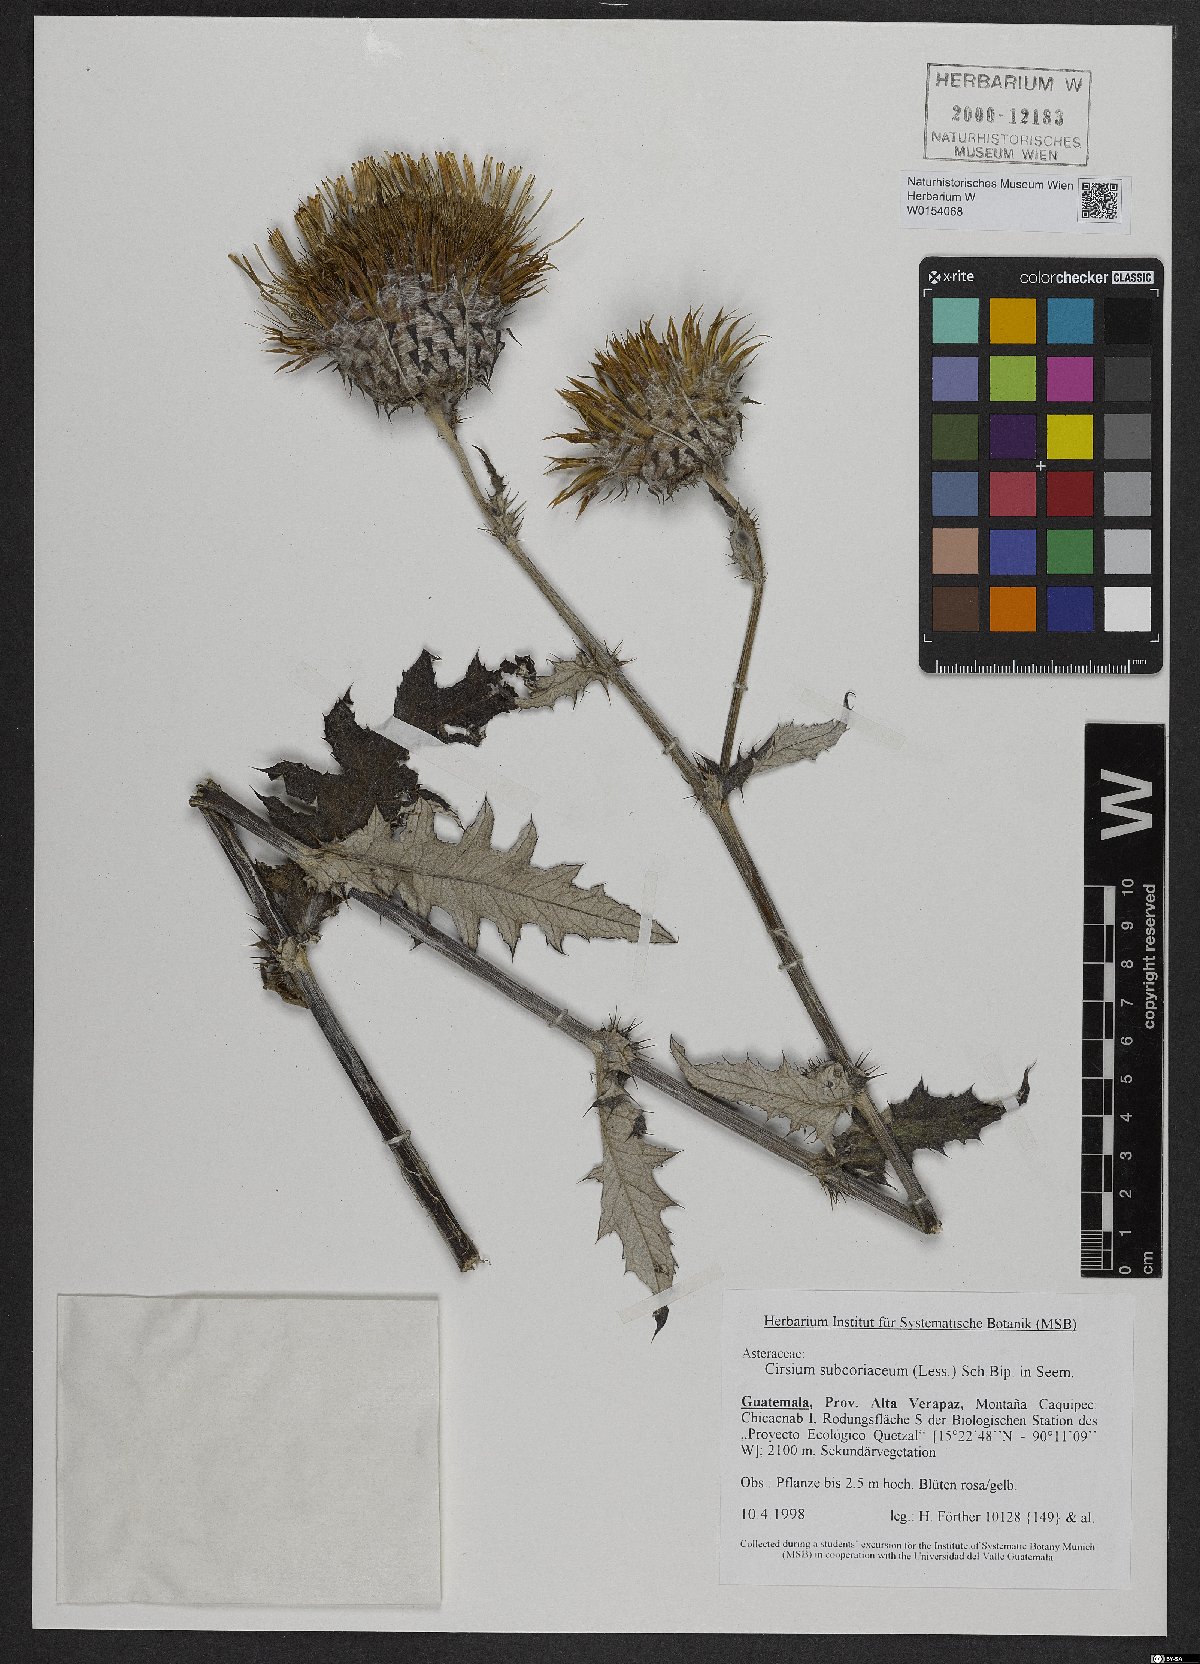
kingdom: Plantae
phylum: Tracheophyta
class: Magnoliopsida
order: Asterales
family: Asteraceae
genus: Cirsium
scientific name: Cirsium subcoriaceum
